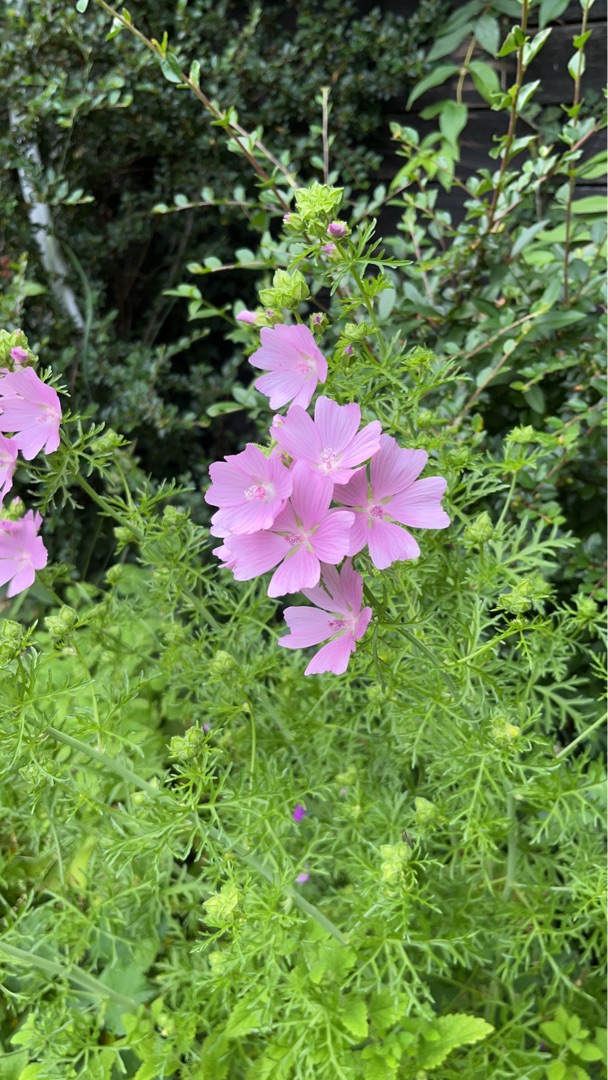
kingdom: Plantae
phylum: Tracheophyta
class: Magnoliopsida
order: Malvales
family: Malvaceae
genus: Malva
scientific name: Malva moschata
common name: Moskus-katost
